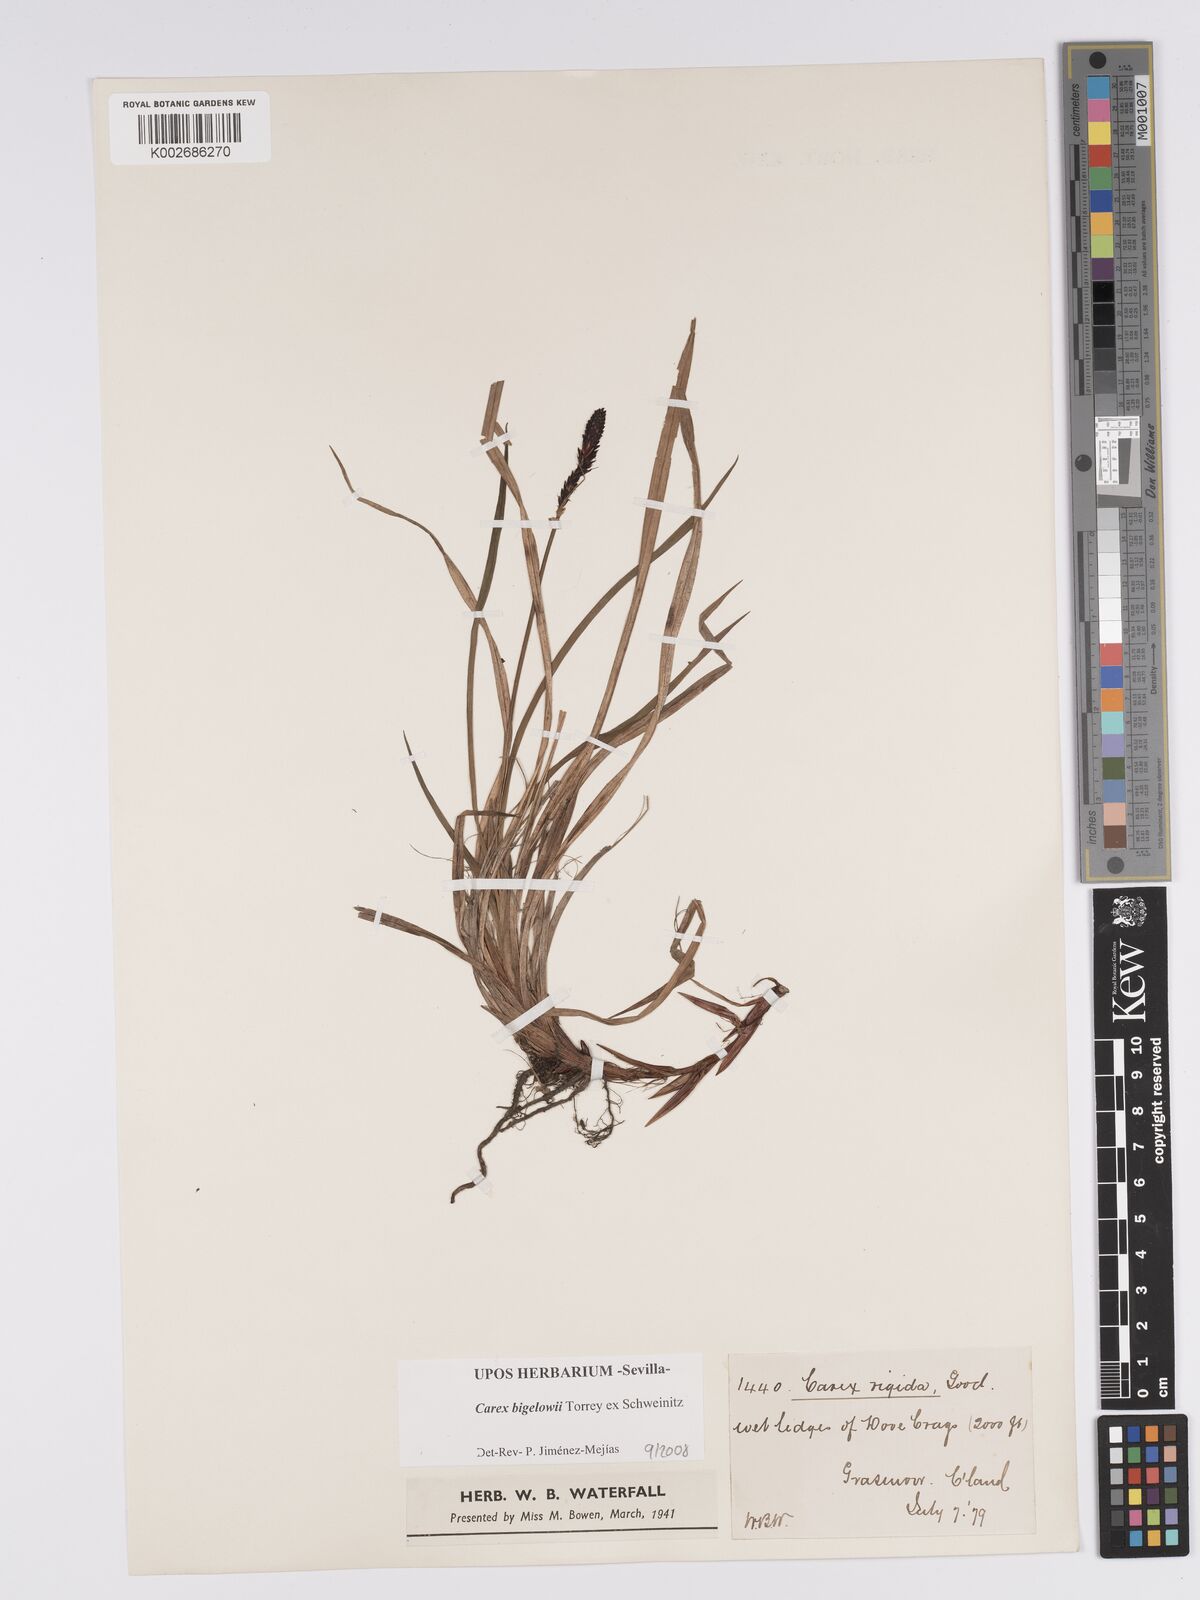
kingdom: Plantae
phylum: Tracheophyta
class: Liliopsida
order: Poales
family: Cyperaceae
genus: Carex
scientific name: Carex bigelowii
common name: Stiff sedge
